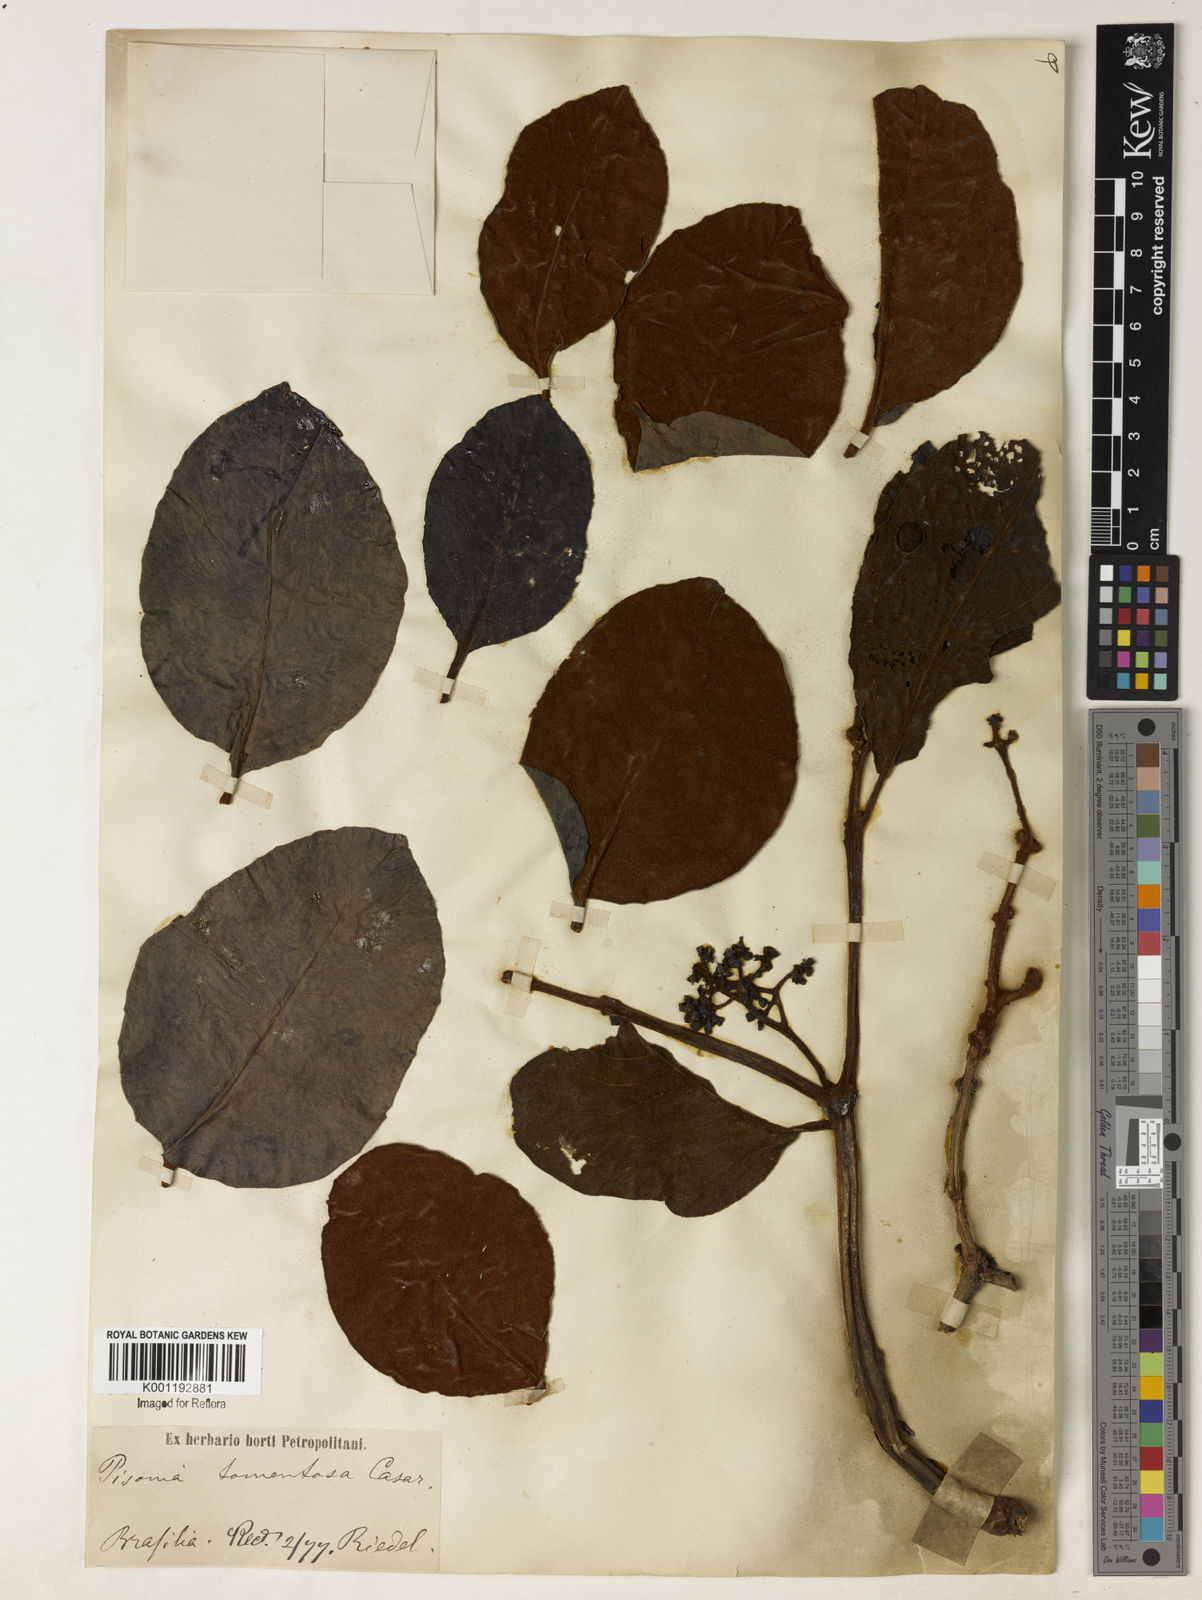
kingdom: Plantae
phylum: Tracheophyta
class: Magnoliopsida
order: Caryophyllales
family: Nyctaginaceae
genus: Guapira
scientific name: Guapira noxia
